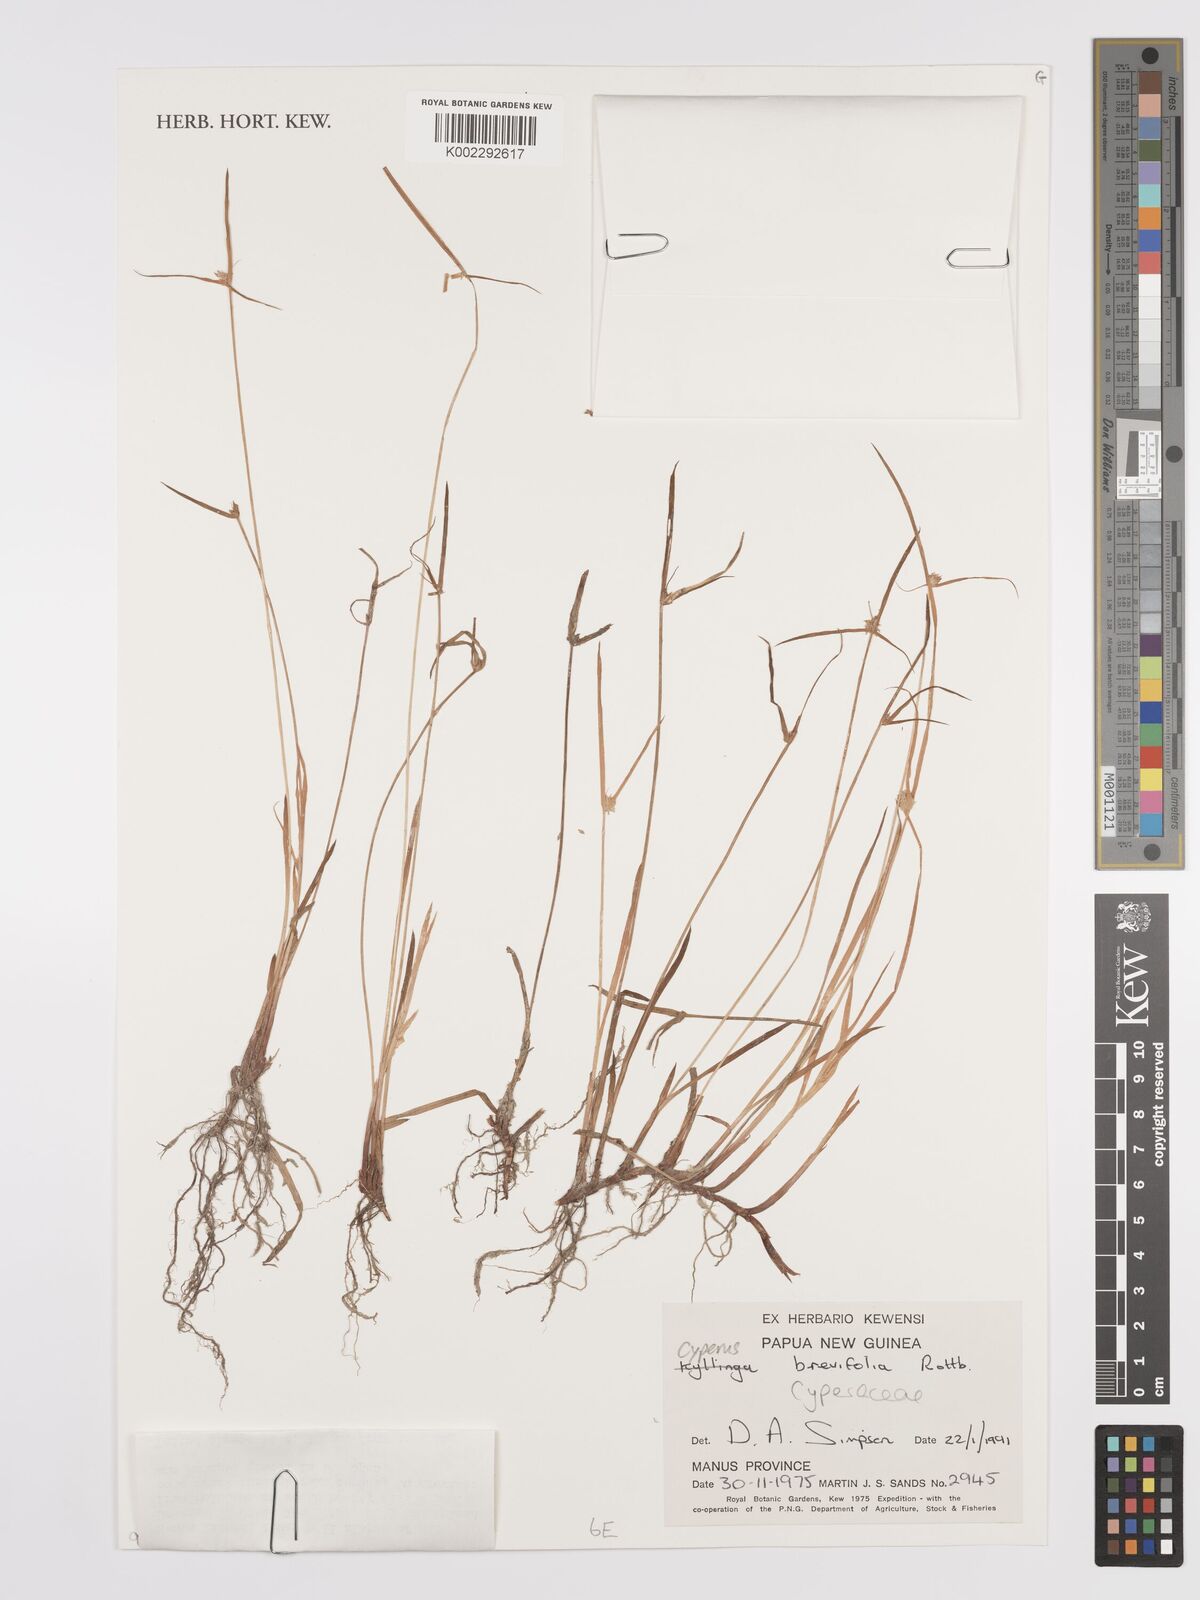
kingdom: Plantae
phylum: Tracheophyta
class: Liliopsida
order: Poales
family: Cyperaceae
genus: Cyperus
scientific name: Cyperus
